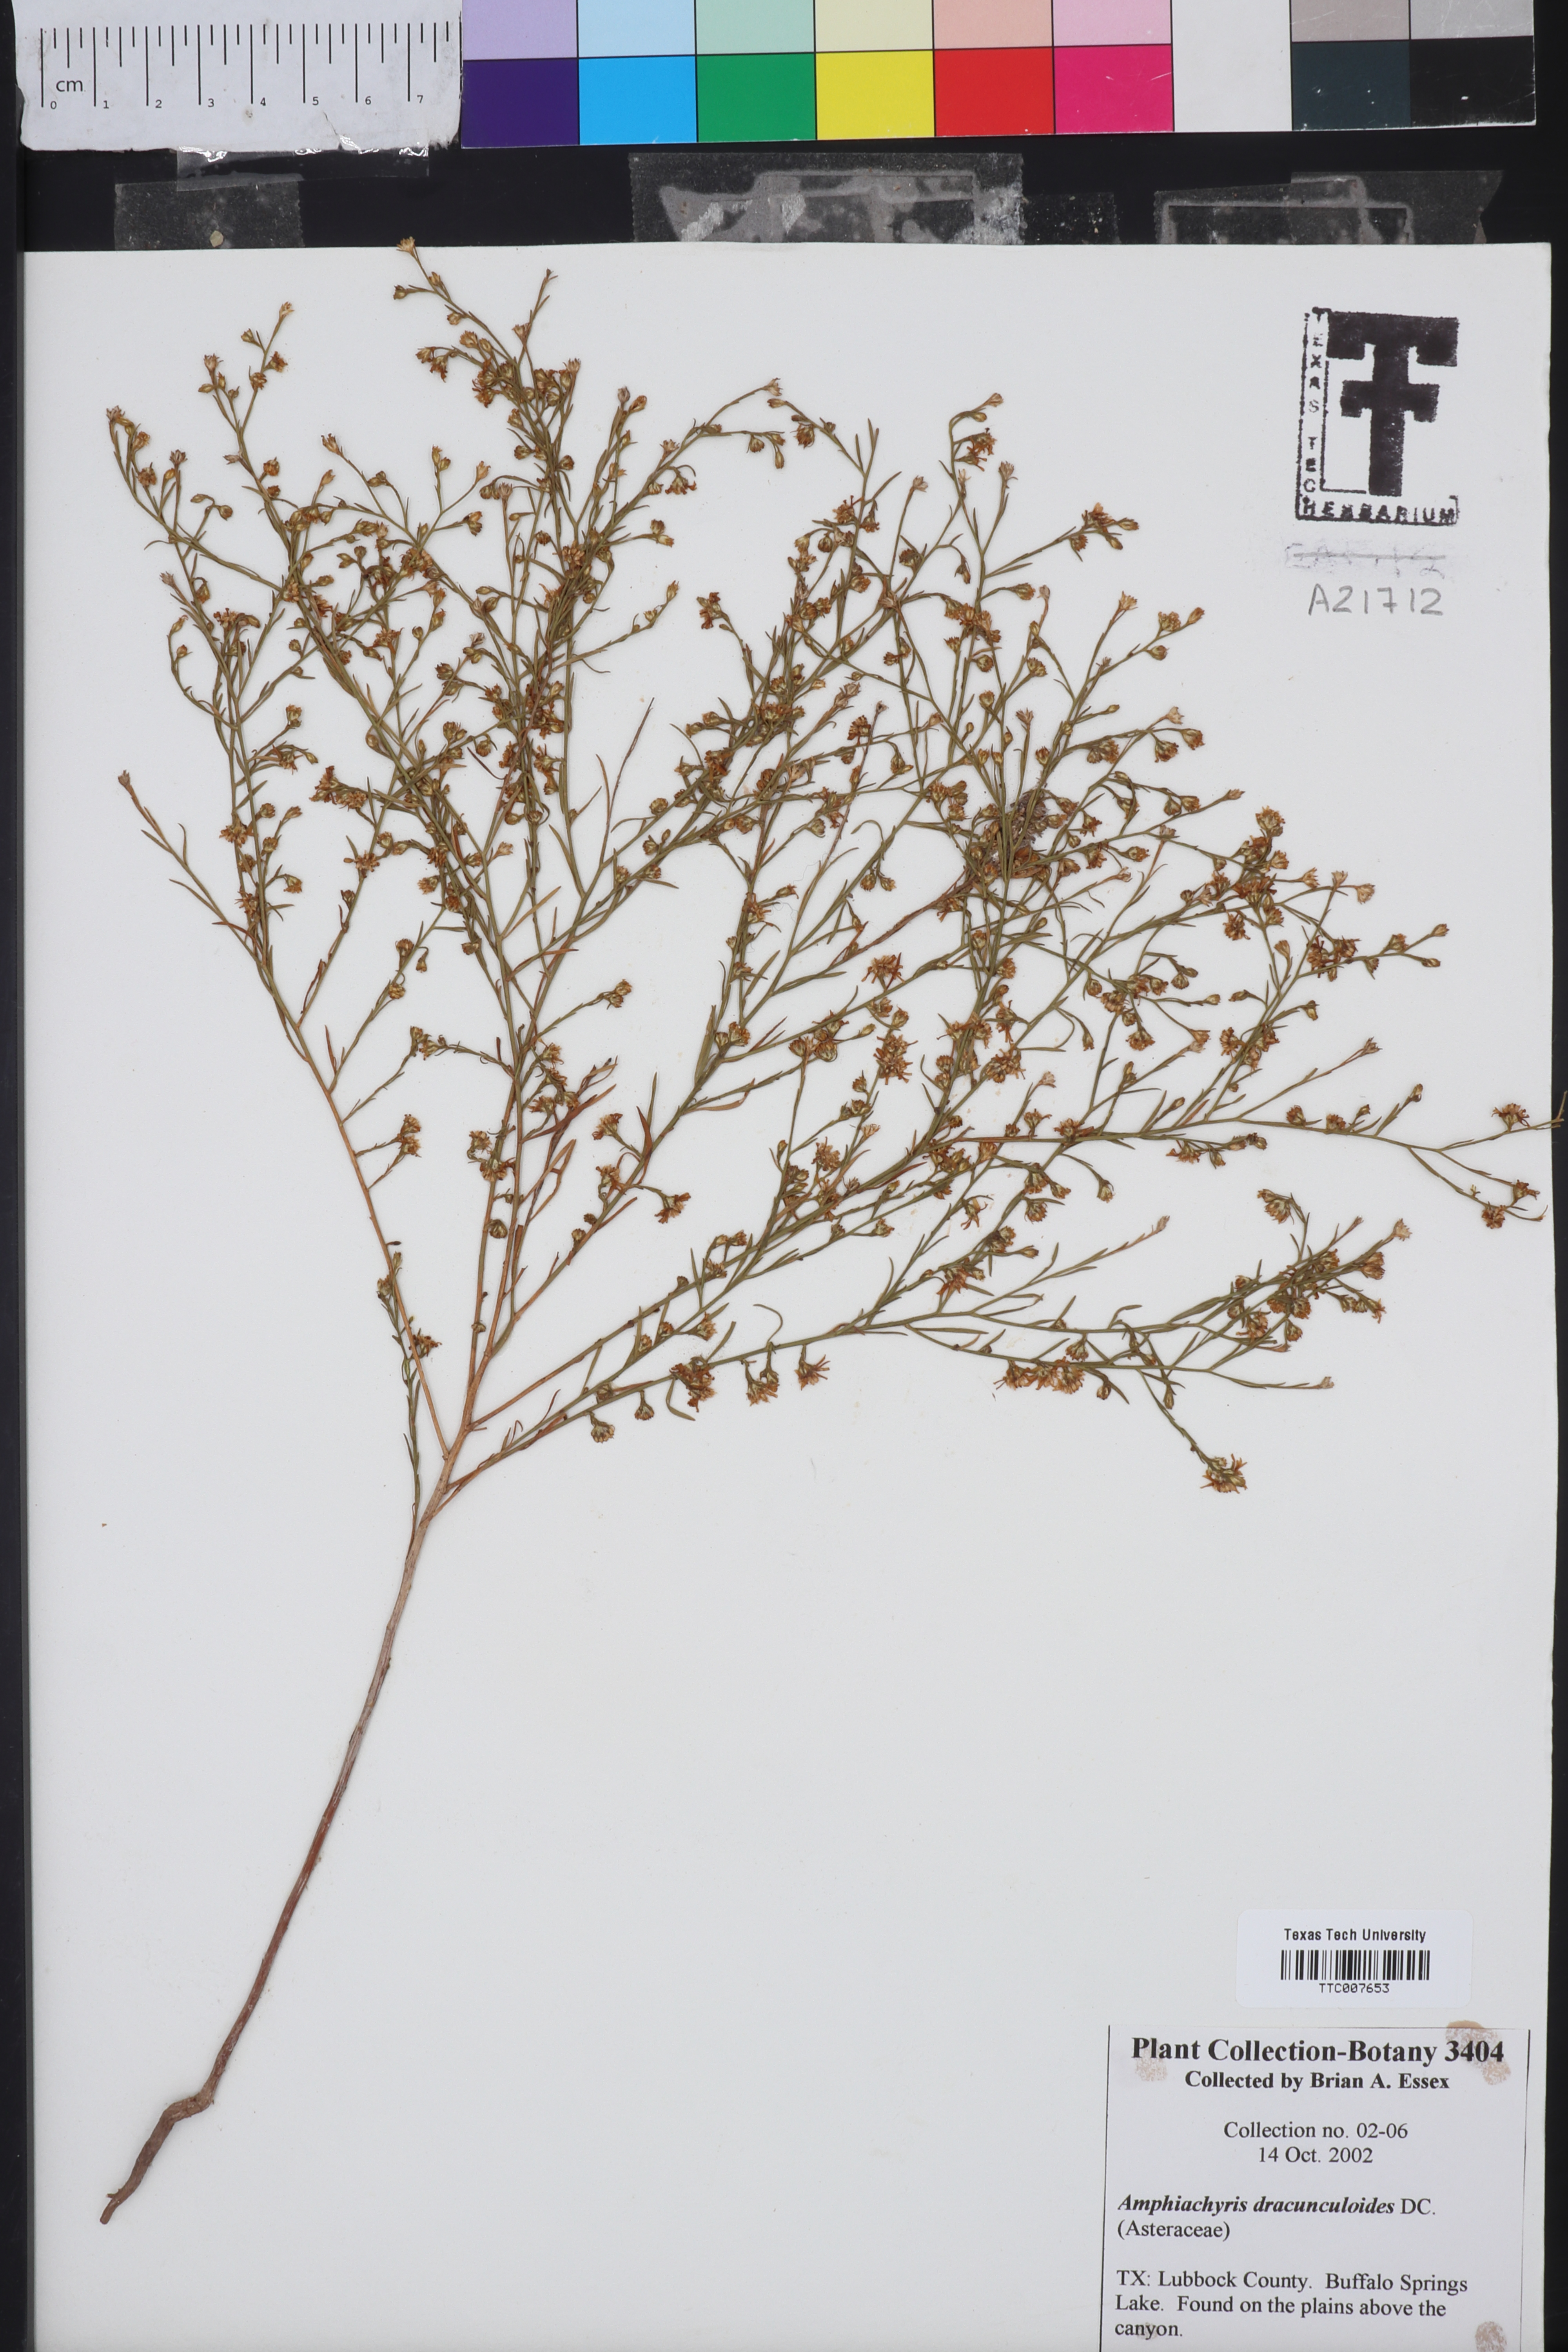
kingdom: Plantae
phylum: Tracheophyta
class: Magnoliopsida
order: Asterales
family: Asteraceae
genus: Amphiachyris
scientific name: Amphiachyris dracunculoides
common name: Broomweed
